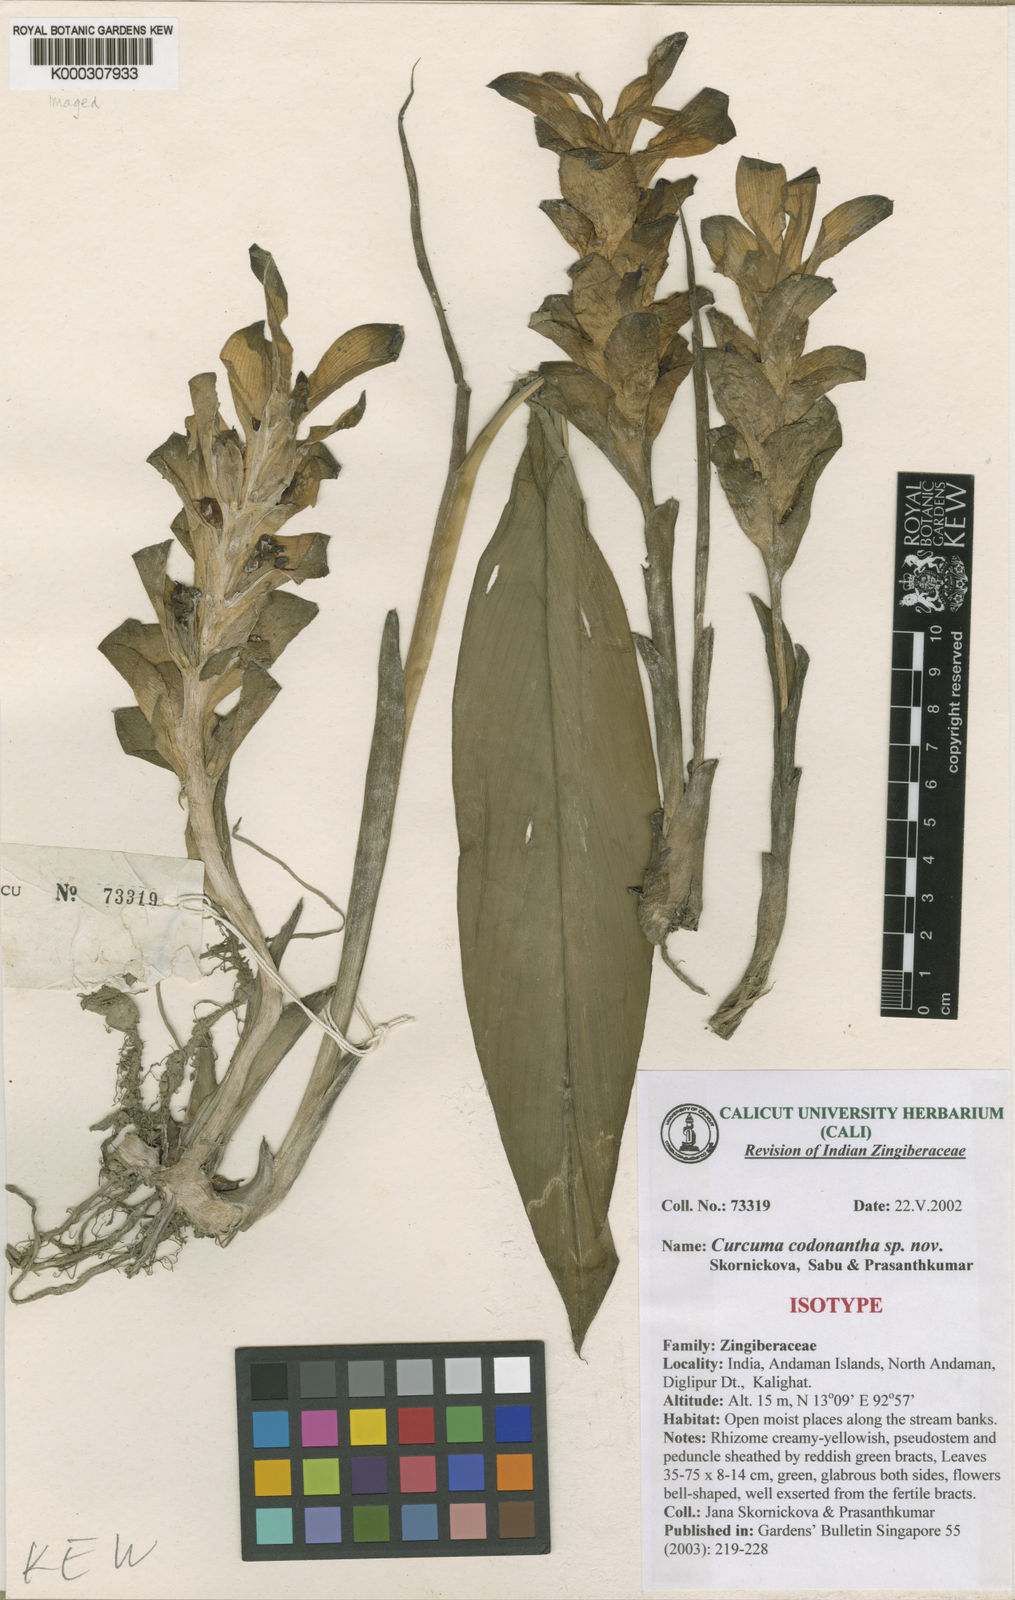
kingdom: Plantae
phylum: Tracheophyta
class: Liliopsida
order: Zingiberales
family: Zingiberaceae
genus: Curcuma
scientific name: Curcuma
